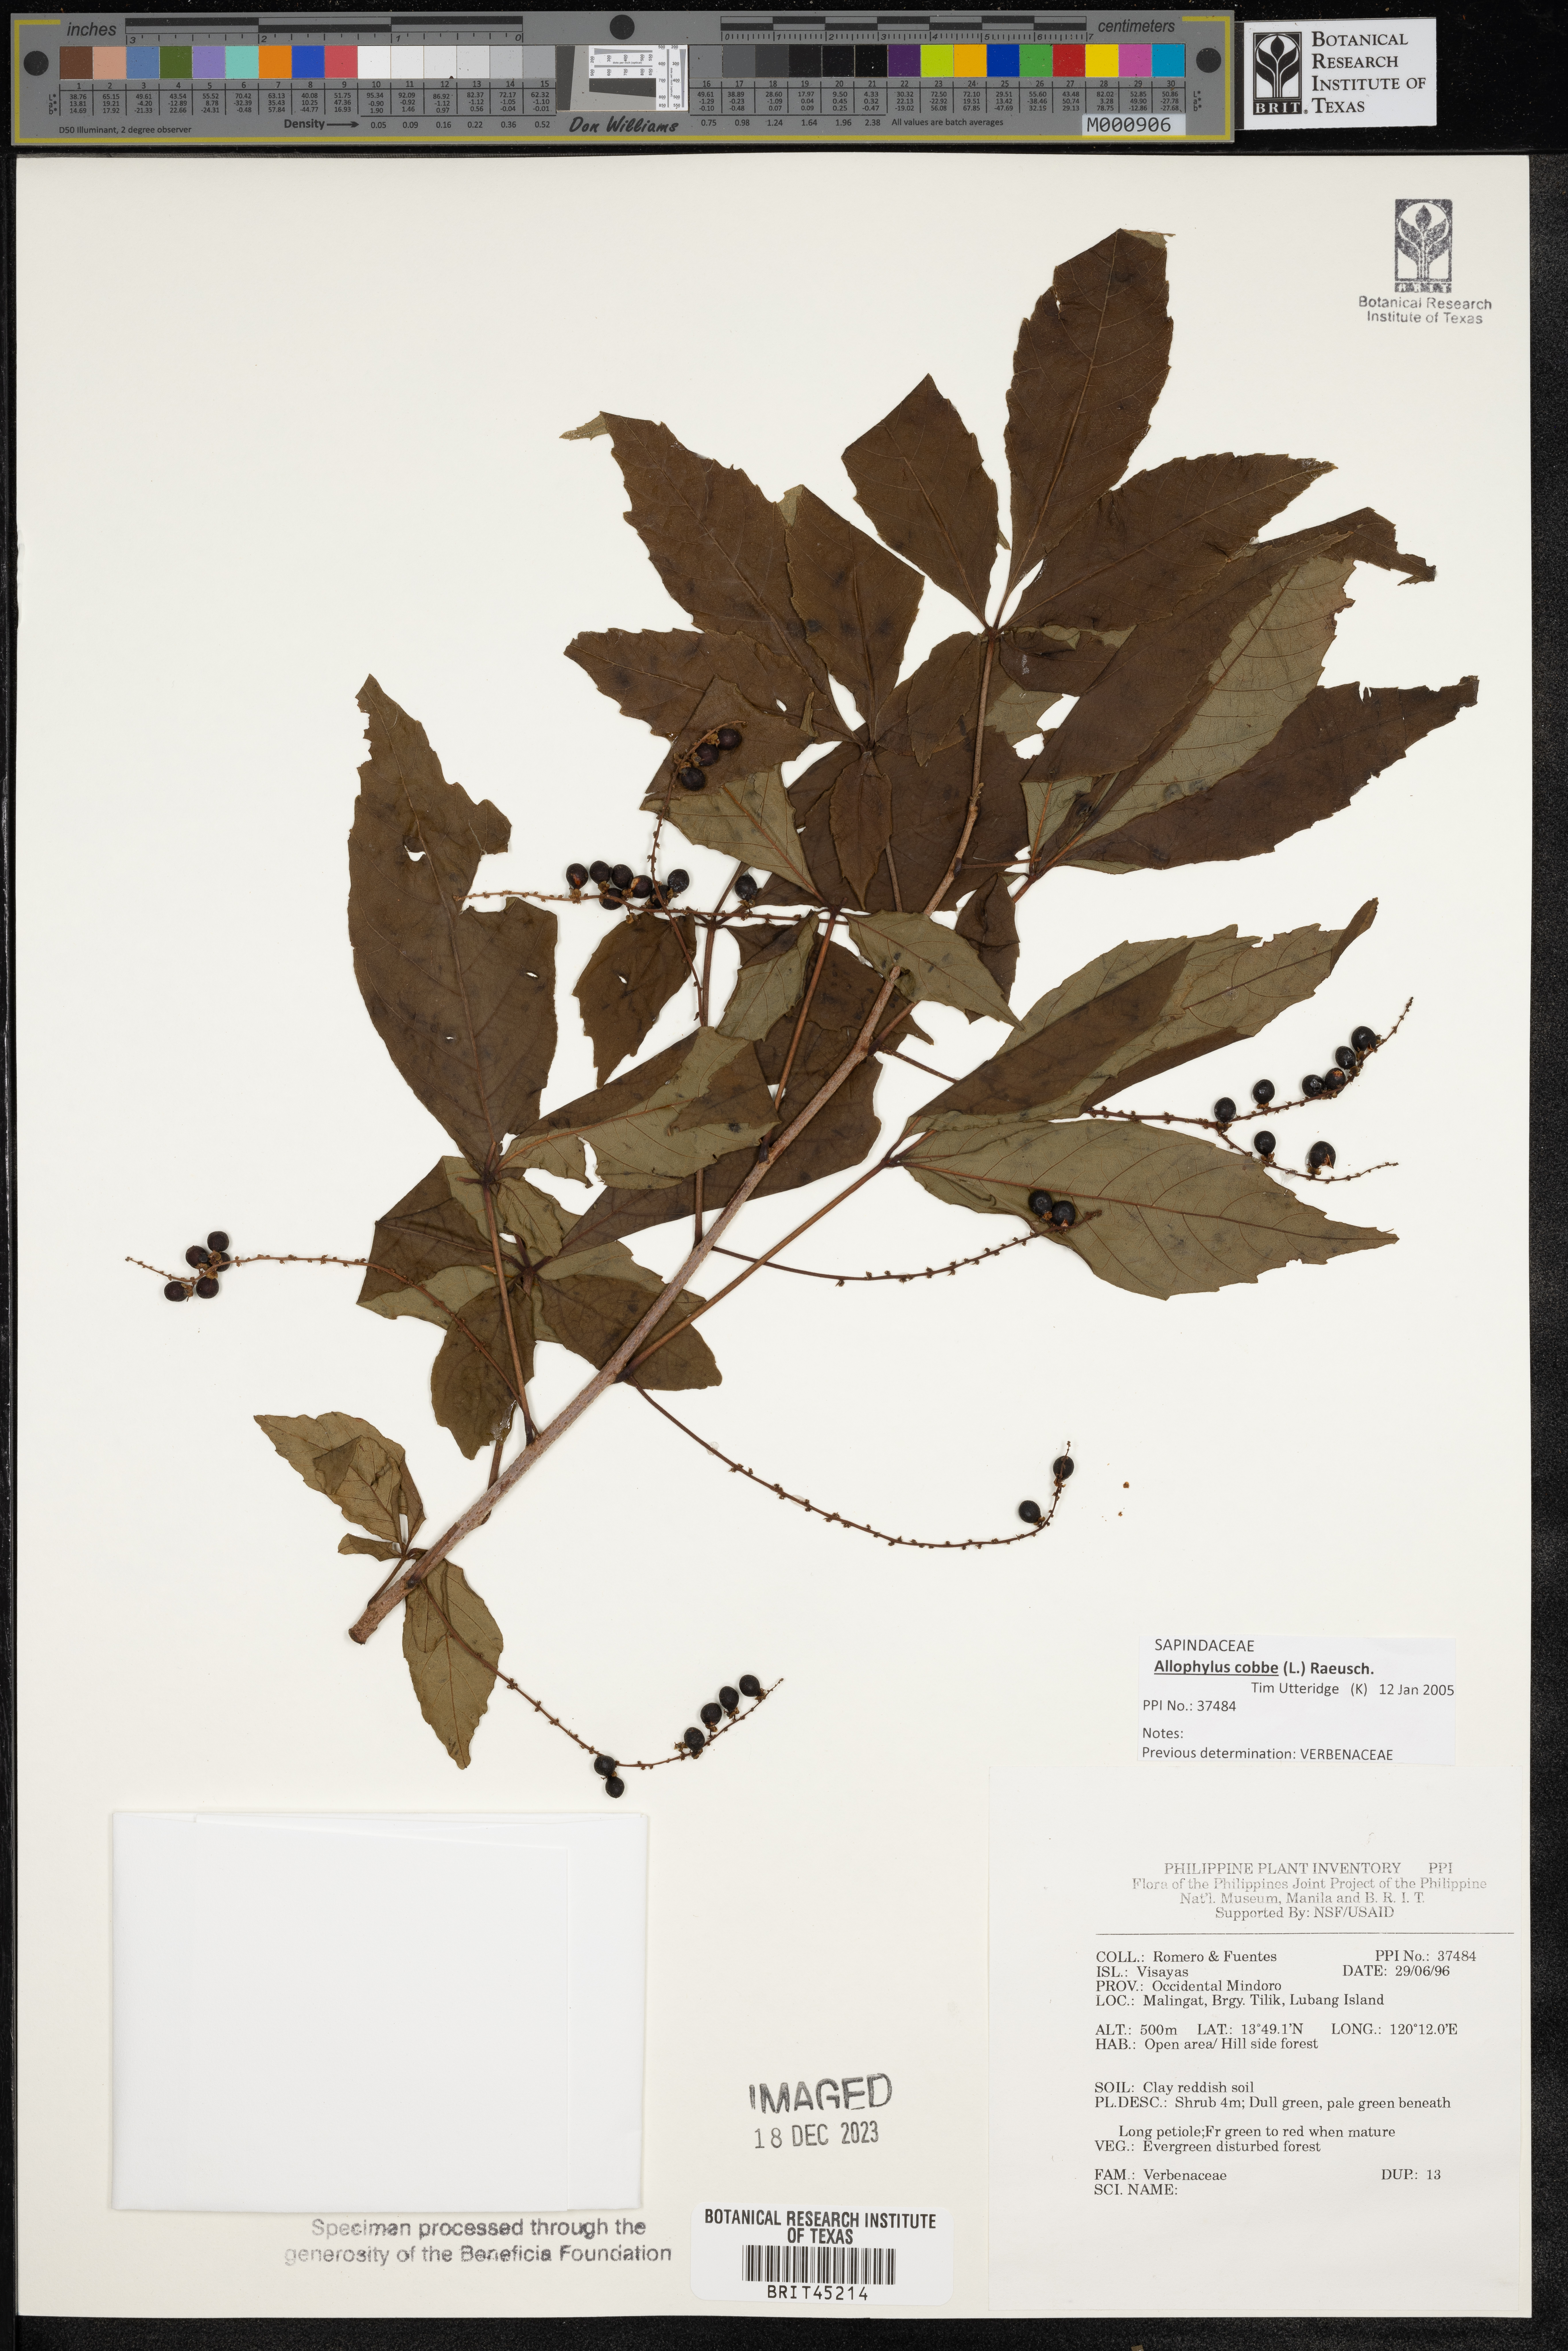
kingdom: Plantae
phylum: Tracheophyta
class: Magnoliopsida
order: Lamiales
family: Verbenaceae
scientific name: Verbenaceae
